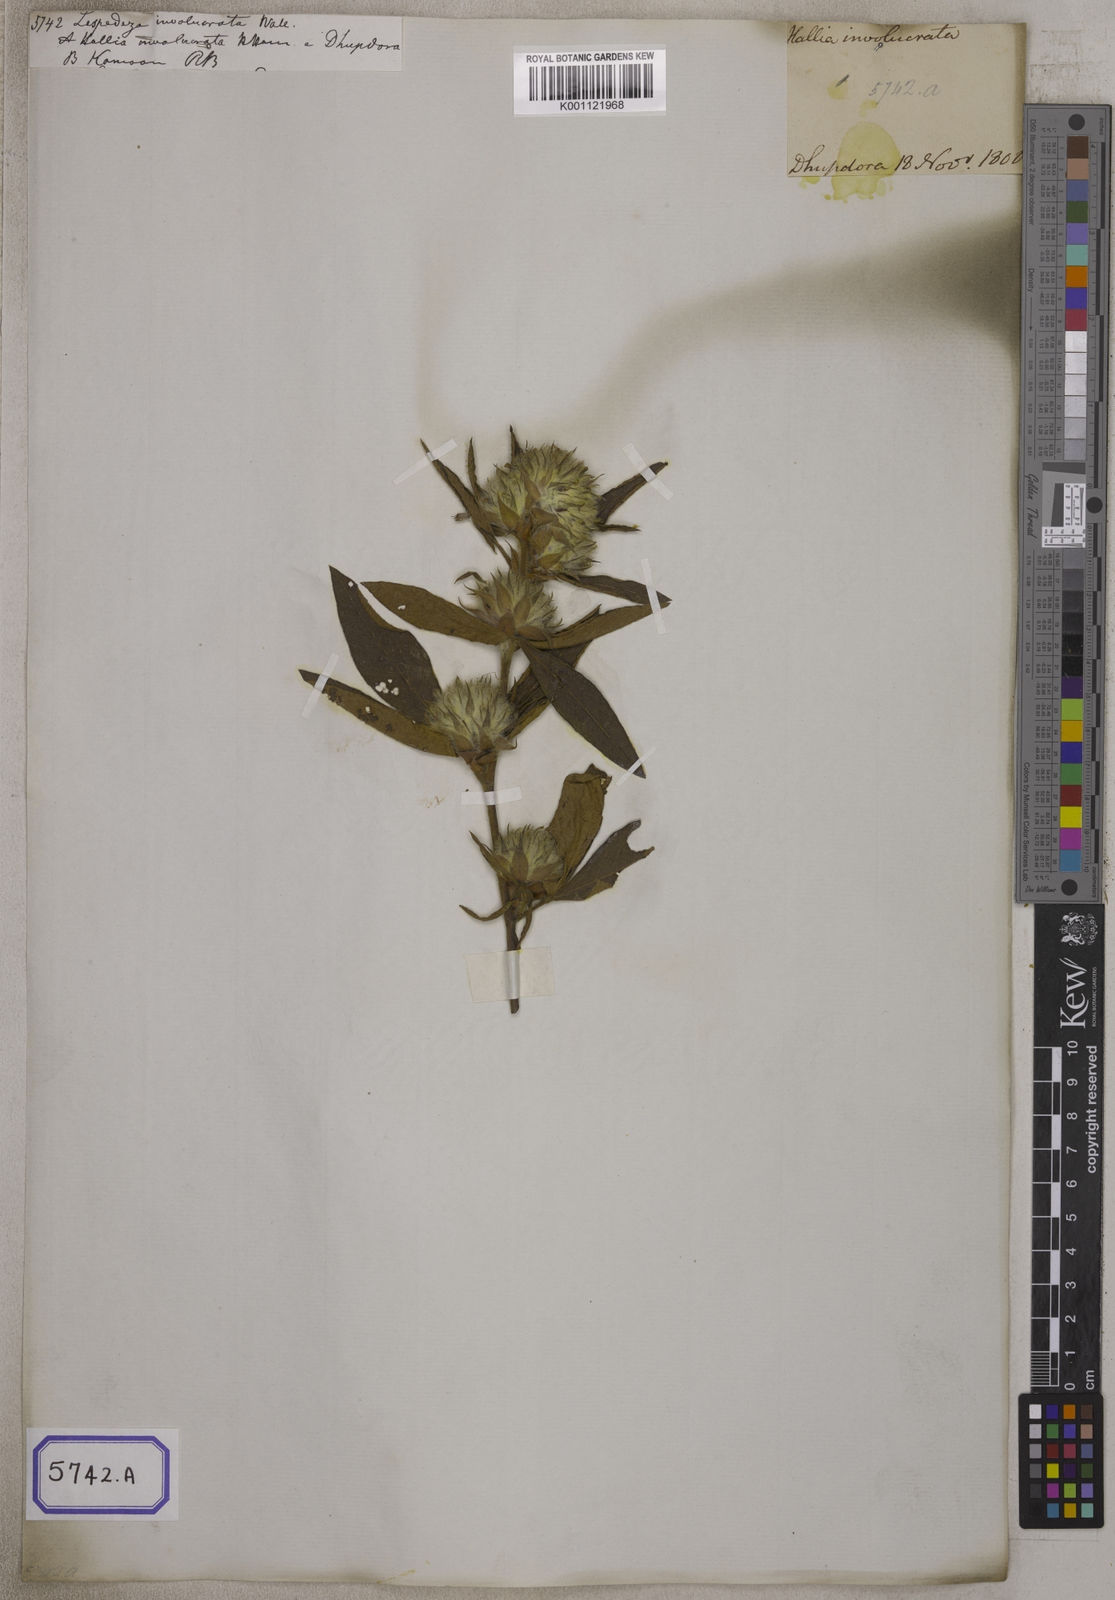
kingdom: Plantae
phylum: Tracheophyta
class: Magnoliopsida
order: Fabales
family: Fabaceae
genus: Flemingia
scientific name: Flemingia trifoliata
